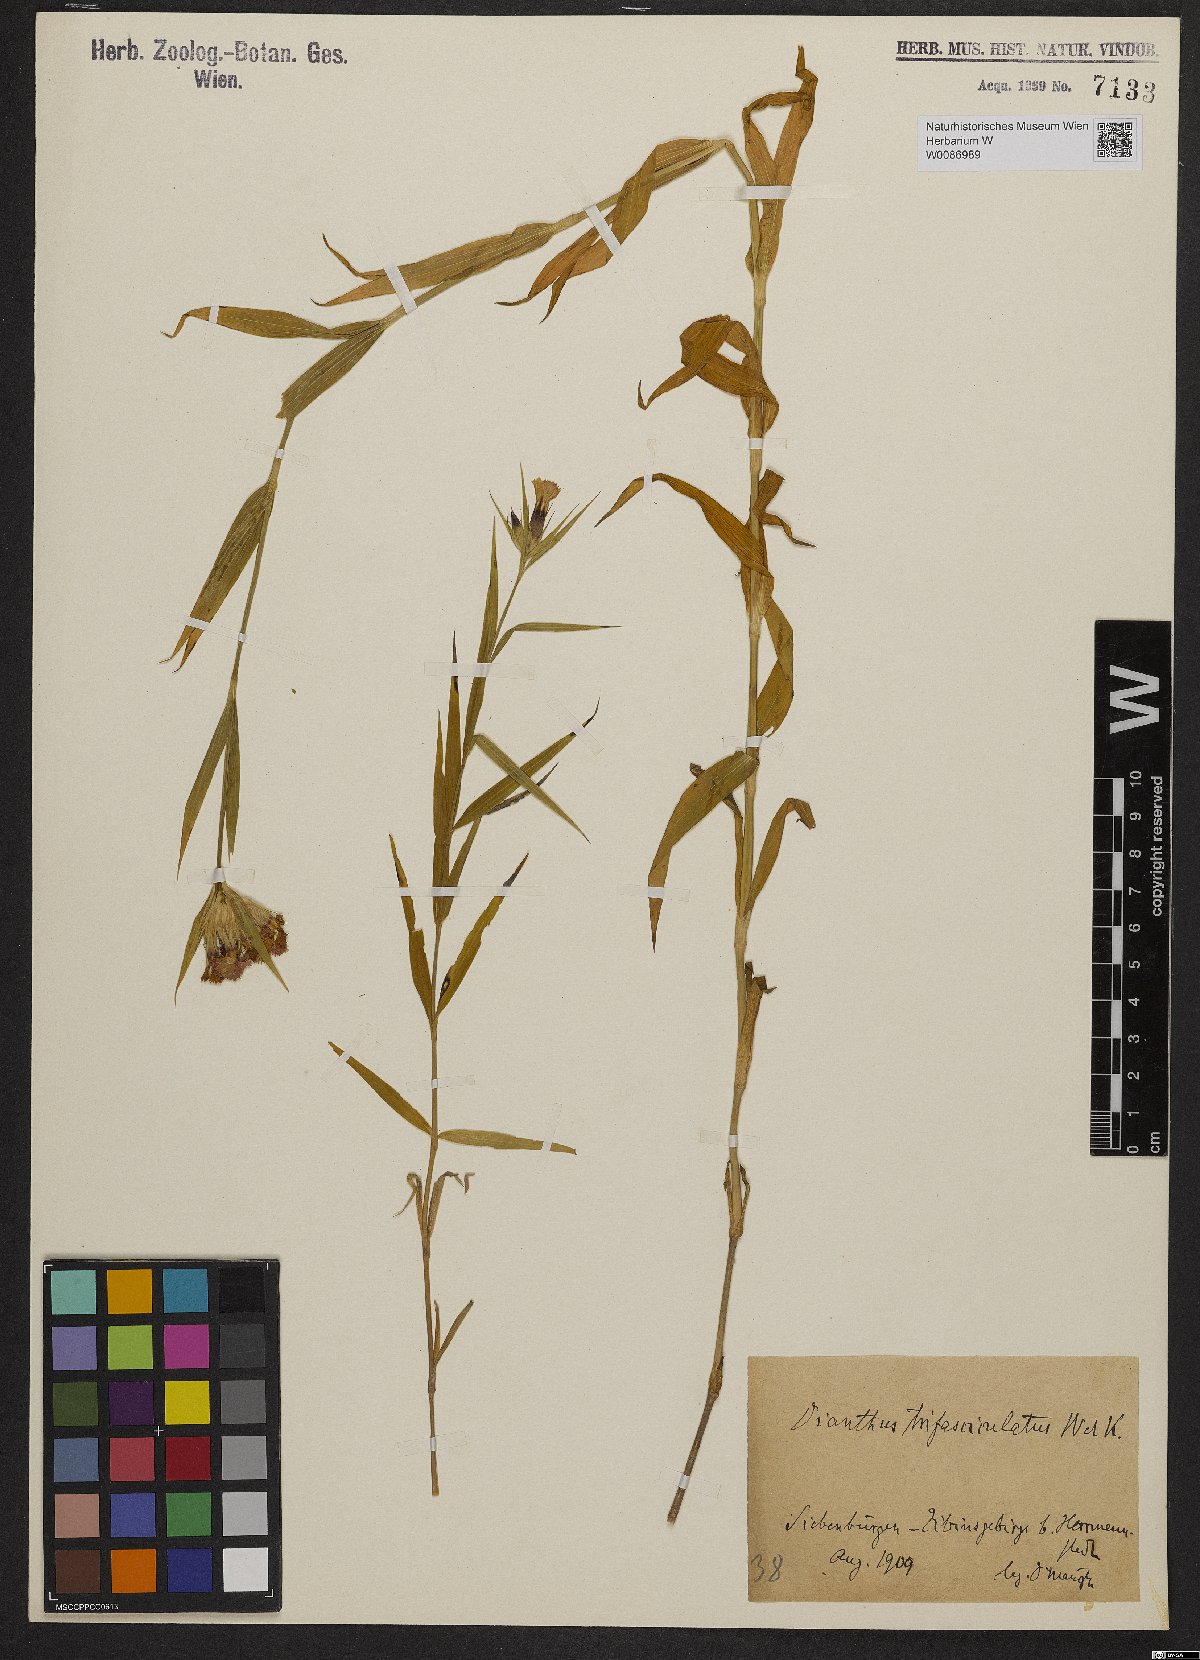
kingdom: Plantae
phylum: Tracheophyta
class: Magnoliopsida
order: Caryophyllales
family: Caryophyllaceae
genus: Dianthus
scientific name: Dianthus trifasciculatus
